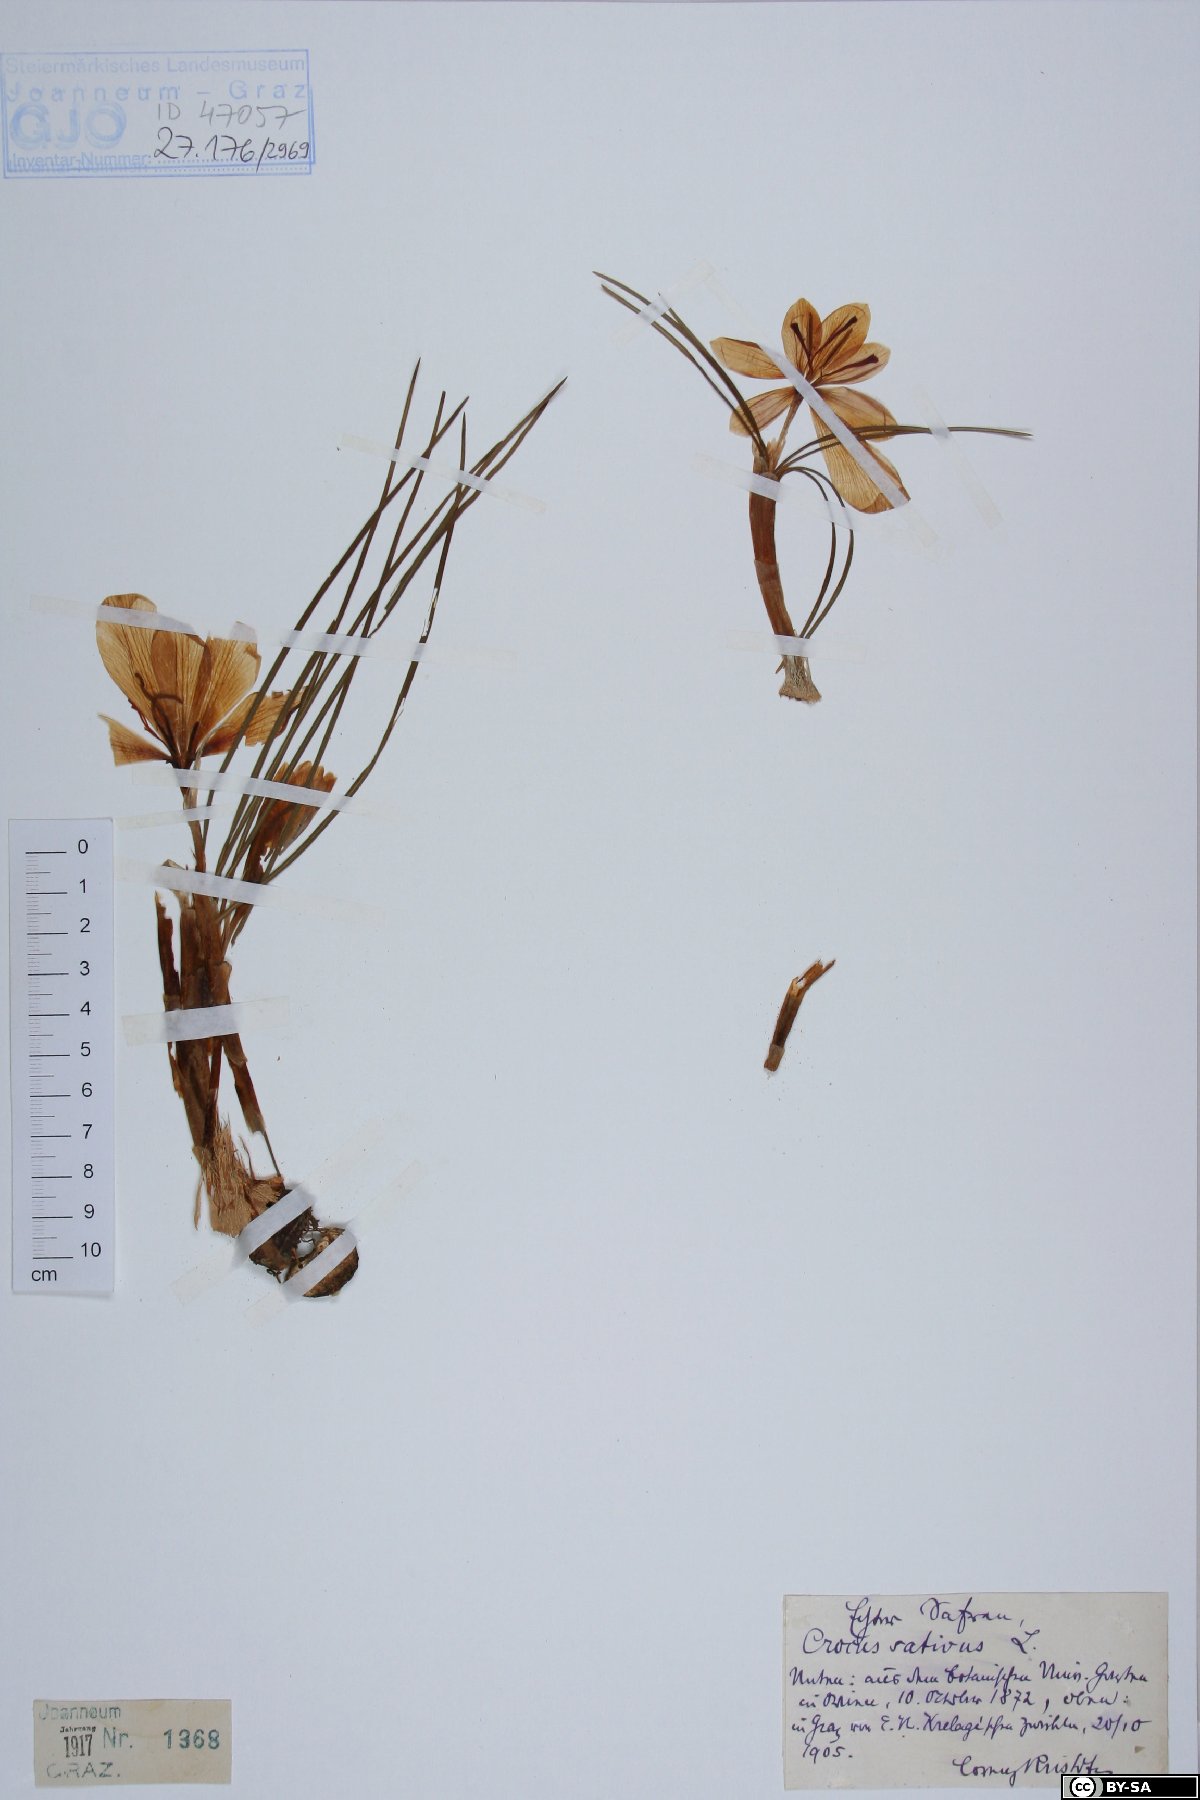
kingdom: Plantae
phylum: Tracheophyta
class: Liliopsida
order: Asparagales
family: Iridaceae
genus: Crocus
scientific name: Crocus sativus
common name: Saffron crocus
